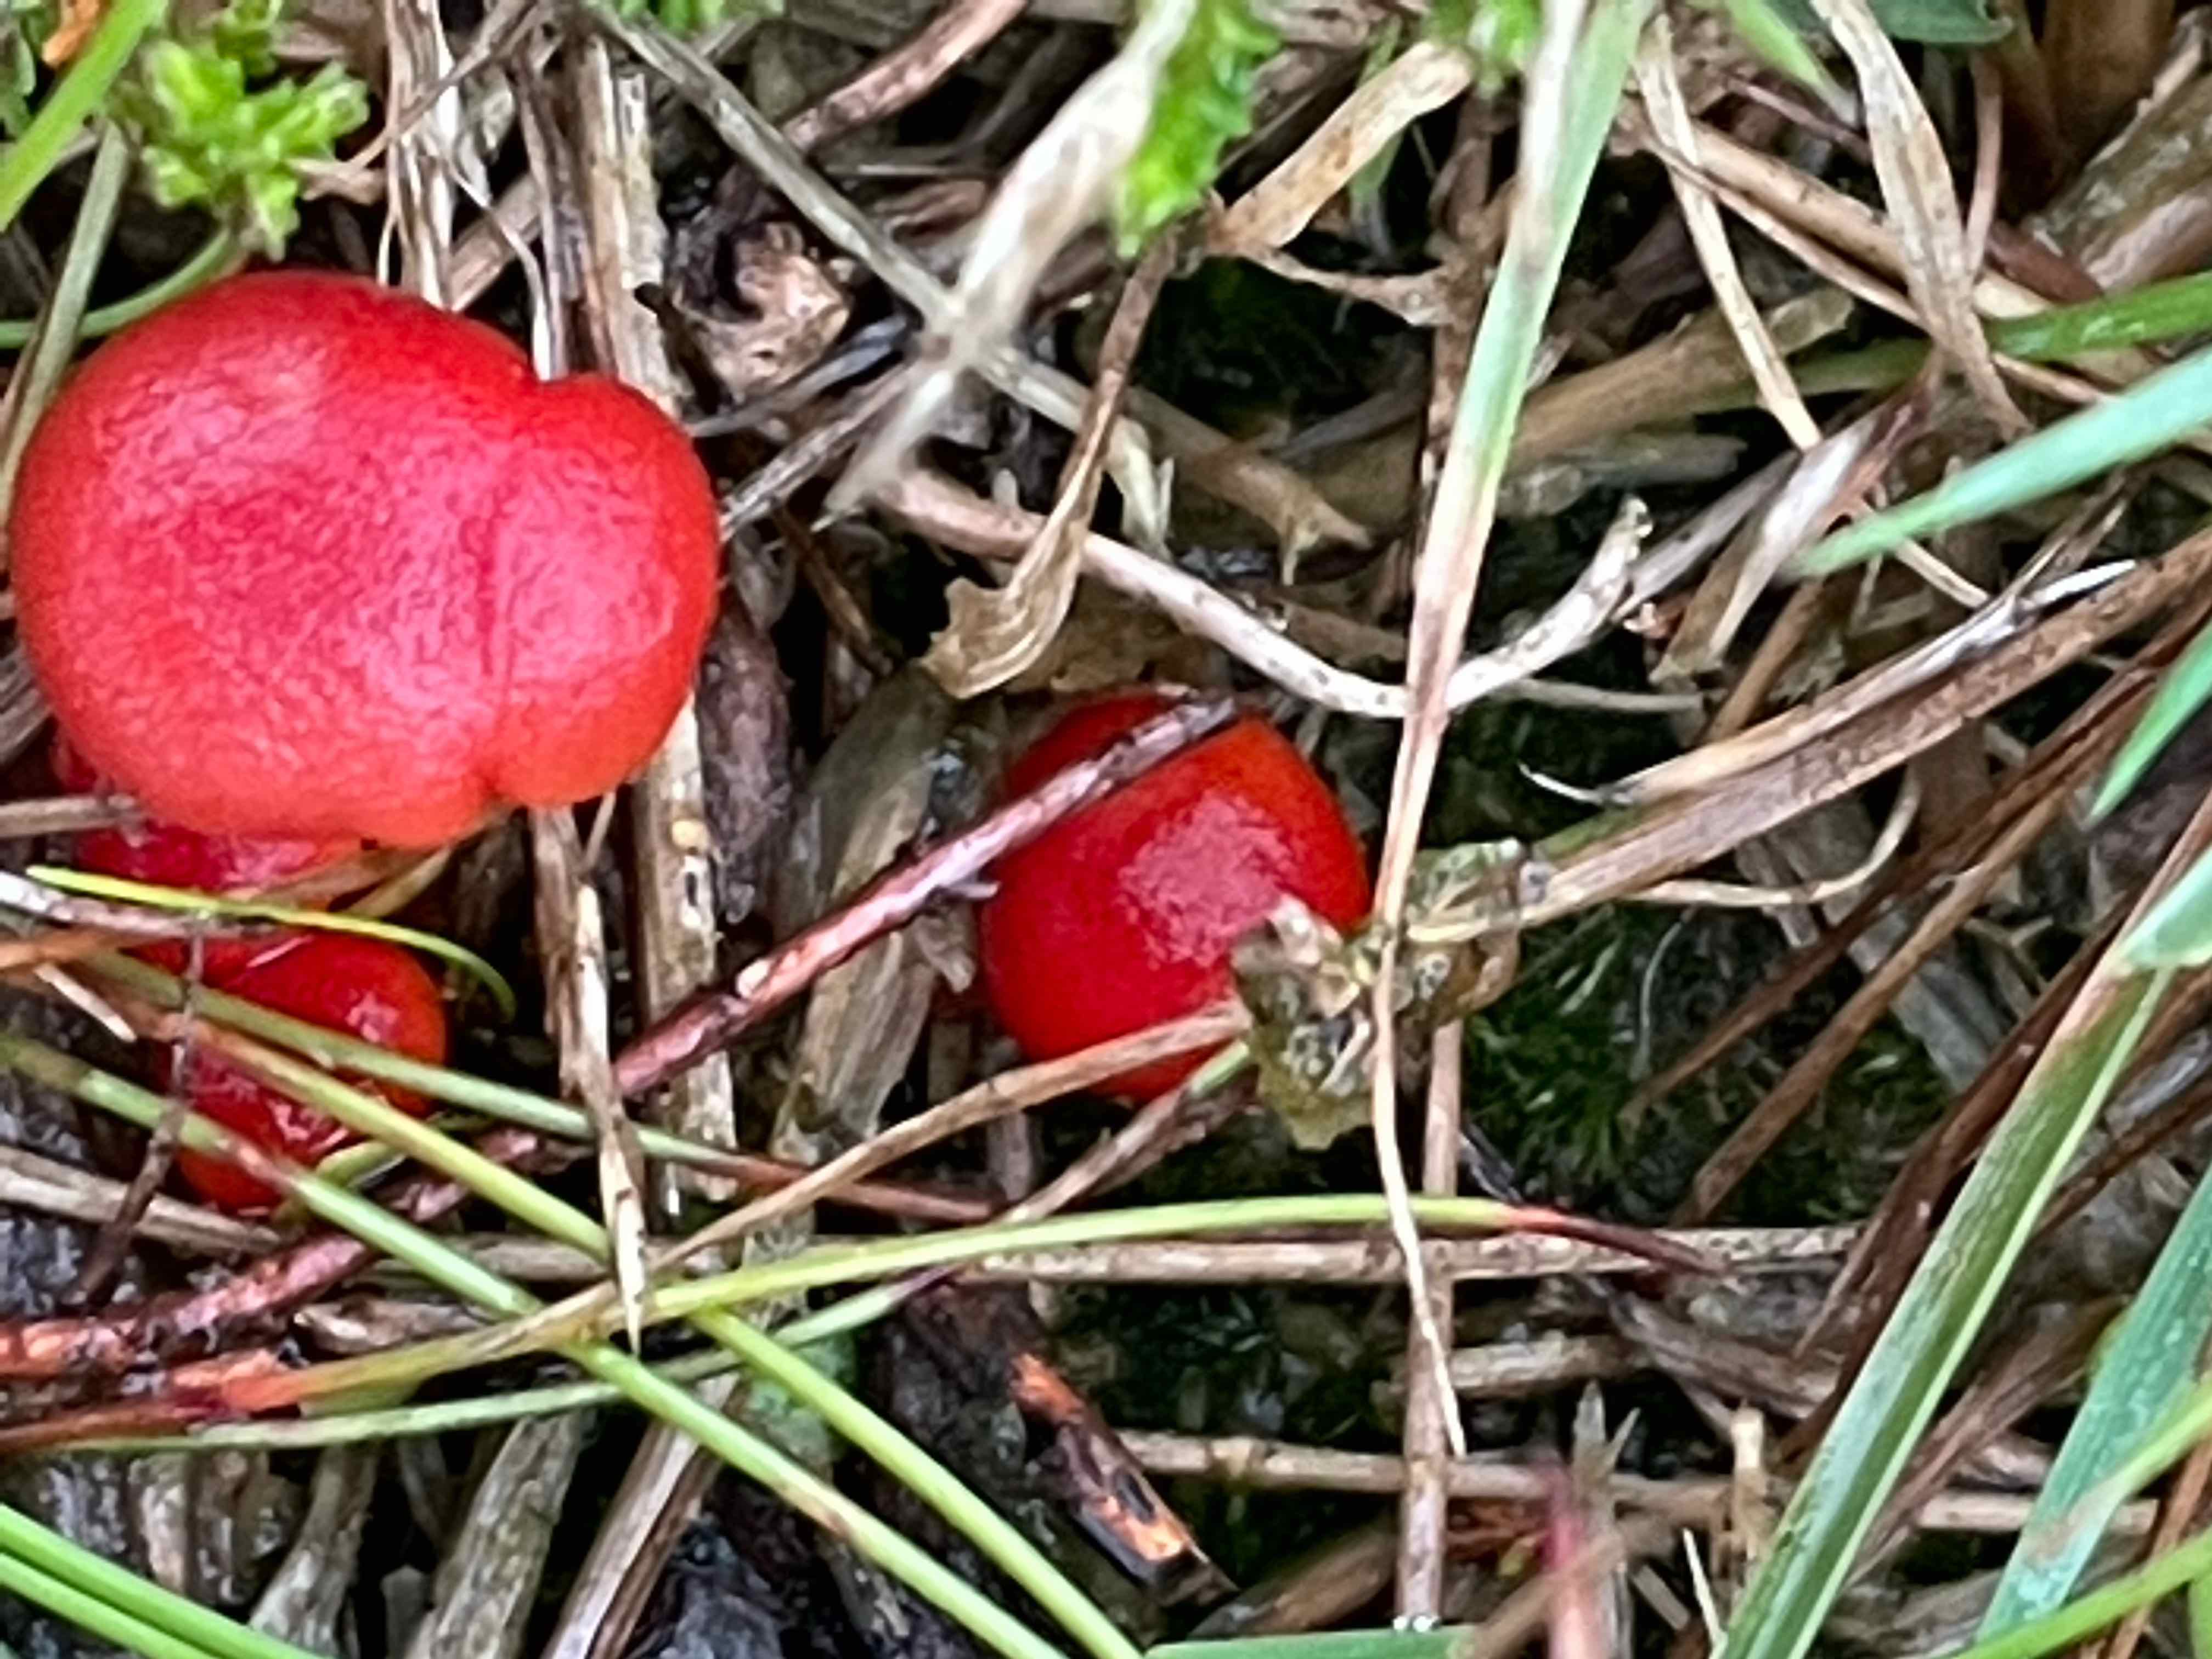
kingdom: Fungi
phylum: Basidiomycota
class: Agaricomycetes
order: Agaricales
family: Hygrophoraceae
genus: Hygrocybe
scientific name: Hygrocybe
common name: vokshat
